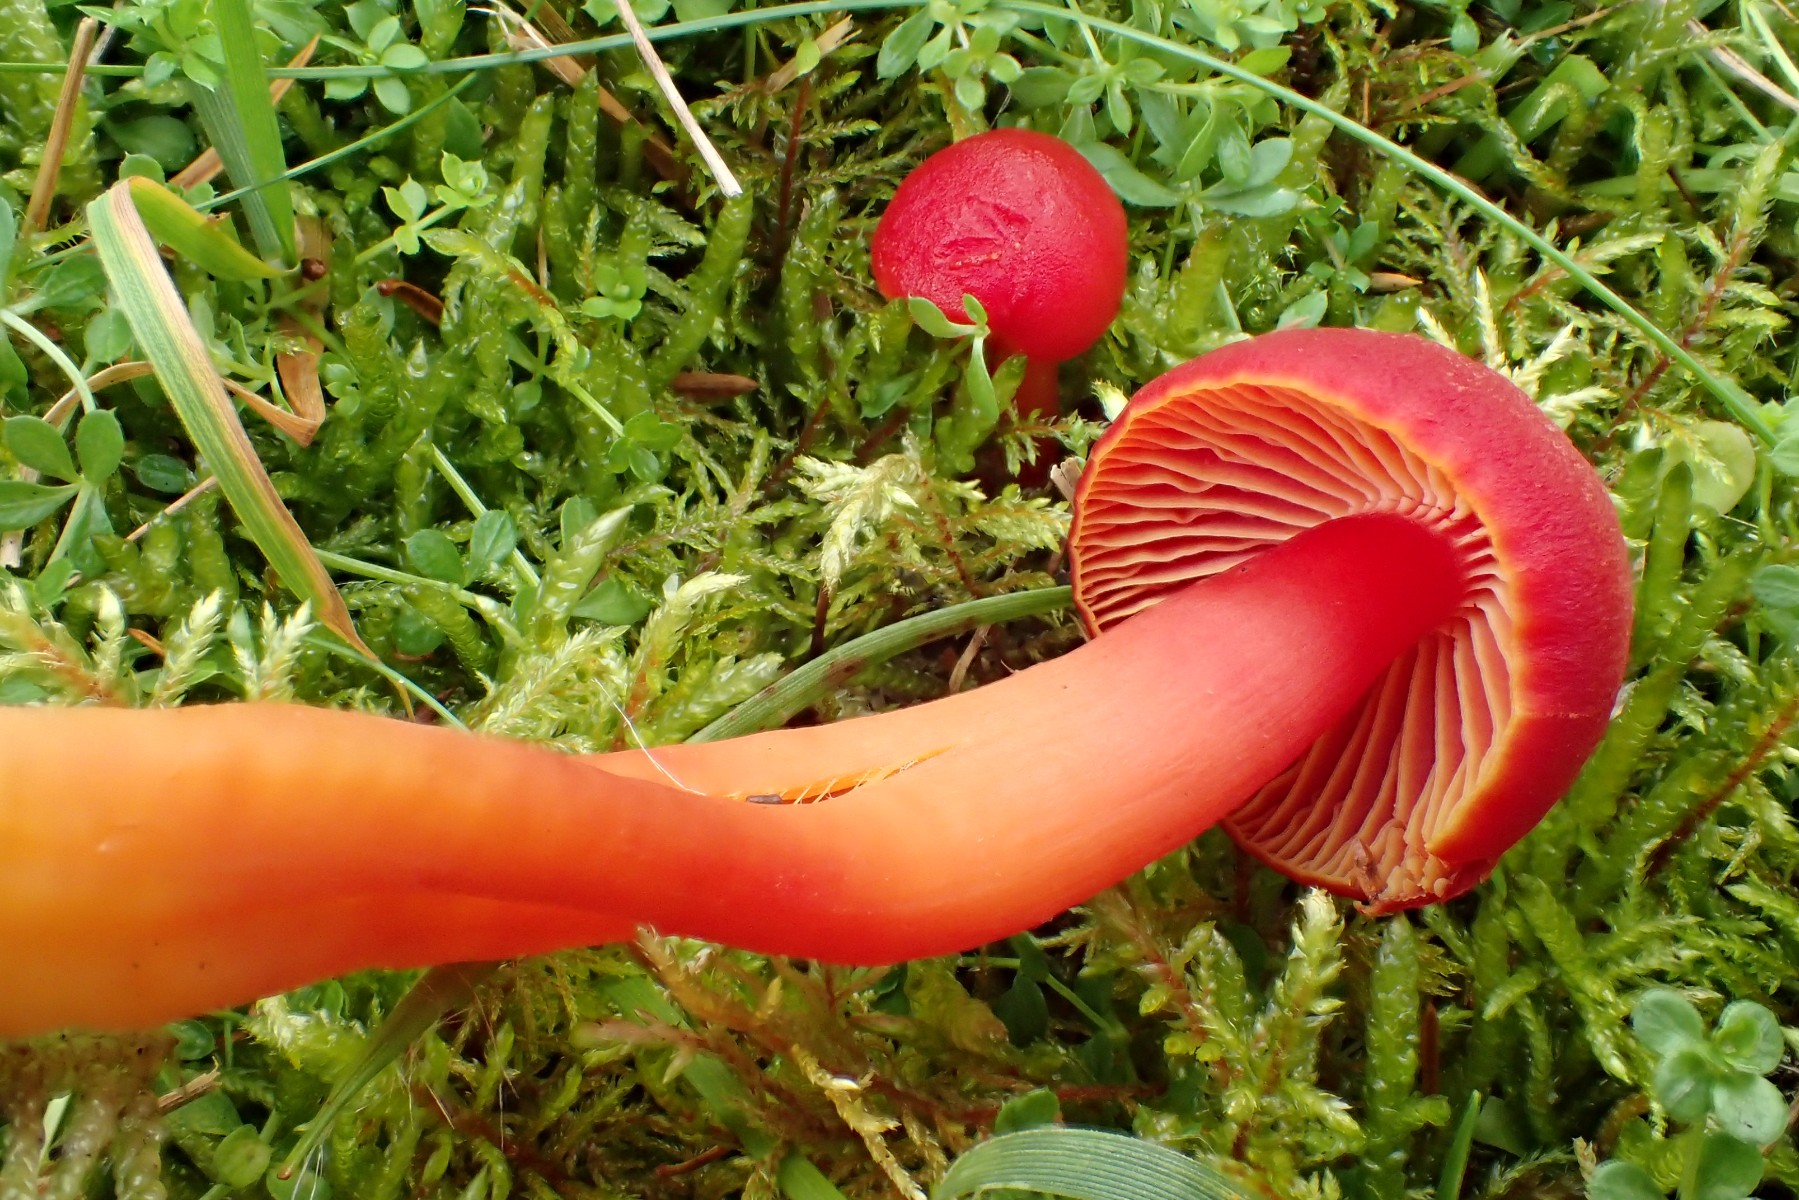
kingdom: Fungi
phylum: Basidiomycota
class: Agaricomycetes
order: Agaricales
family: Hygrophoraceae
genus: Hygrocybe
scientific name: Hygrocybe coccinea
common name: cinnober-vokshat
